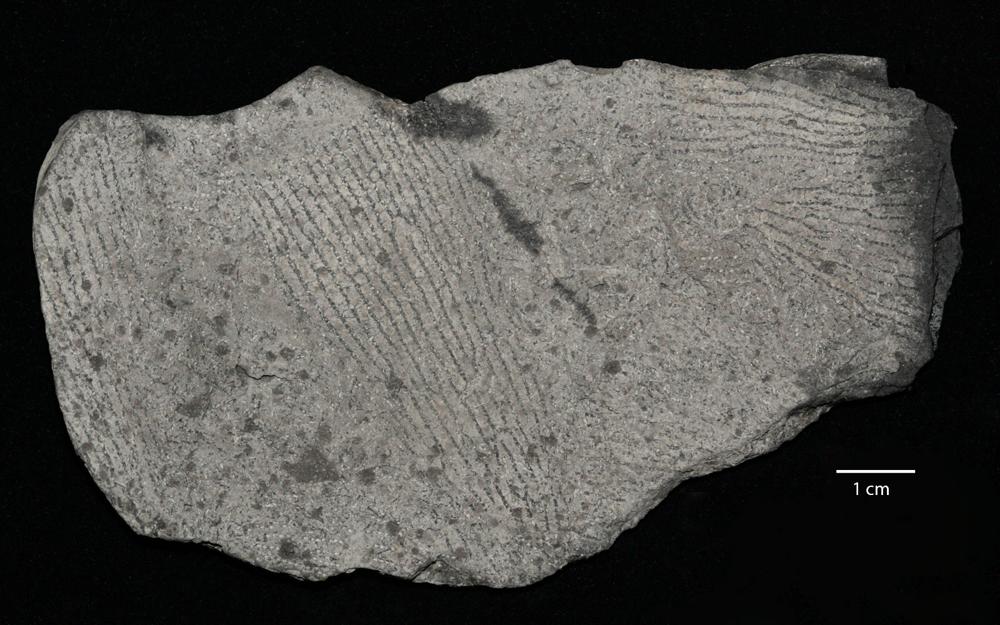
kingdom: Animalia
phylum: Hemichordata
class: Pterobranchia
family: Anisograptidae
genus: Rhabdinopora
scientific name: Rhabdinopora Gorgonia flabelliformis
